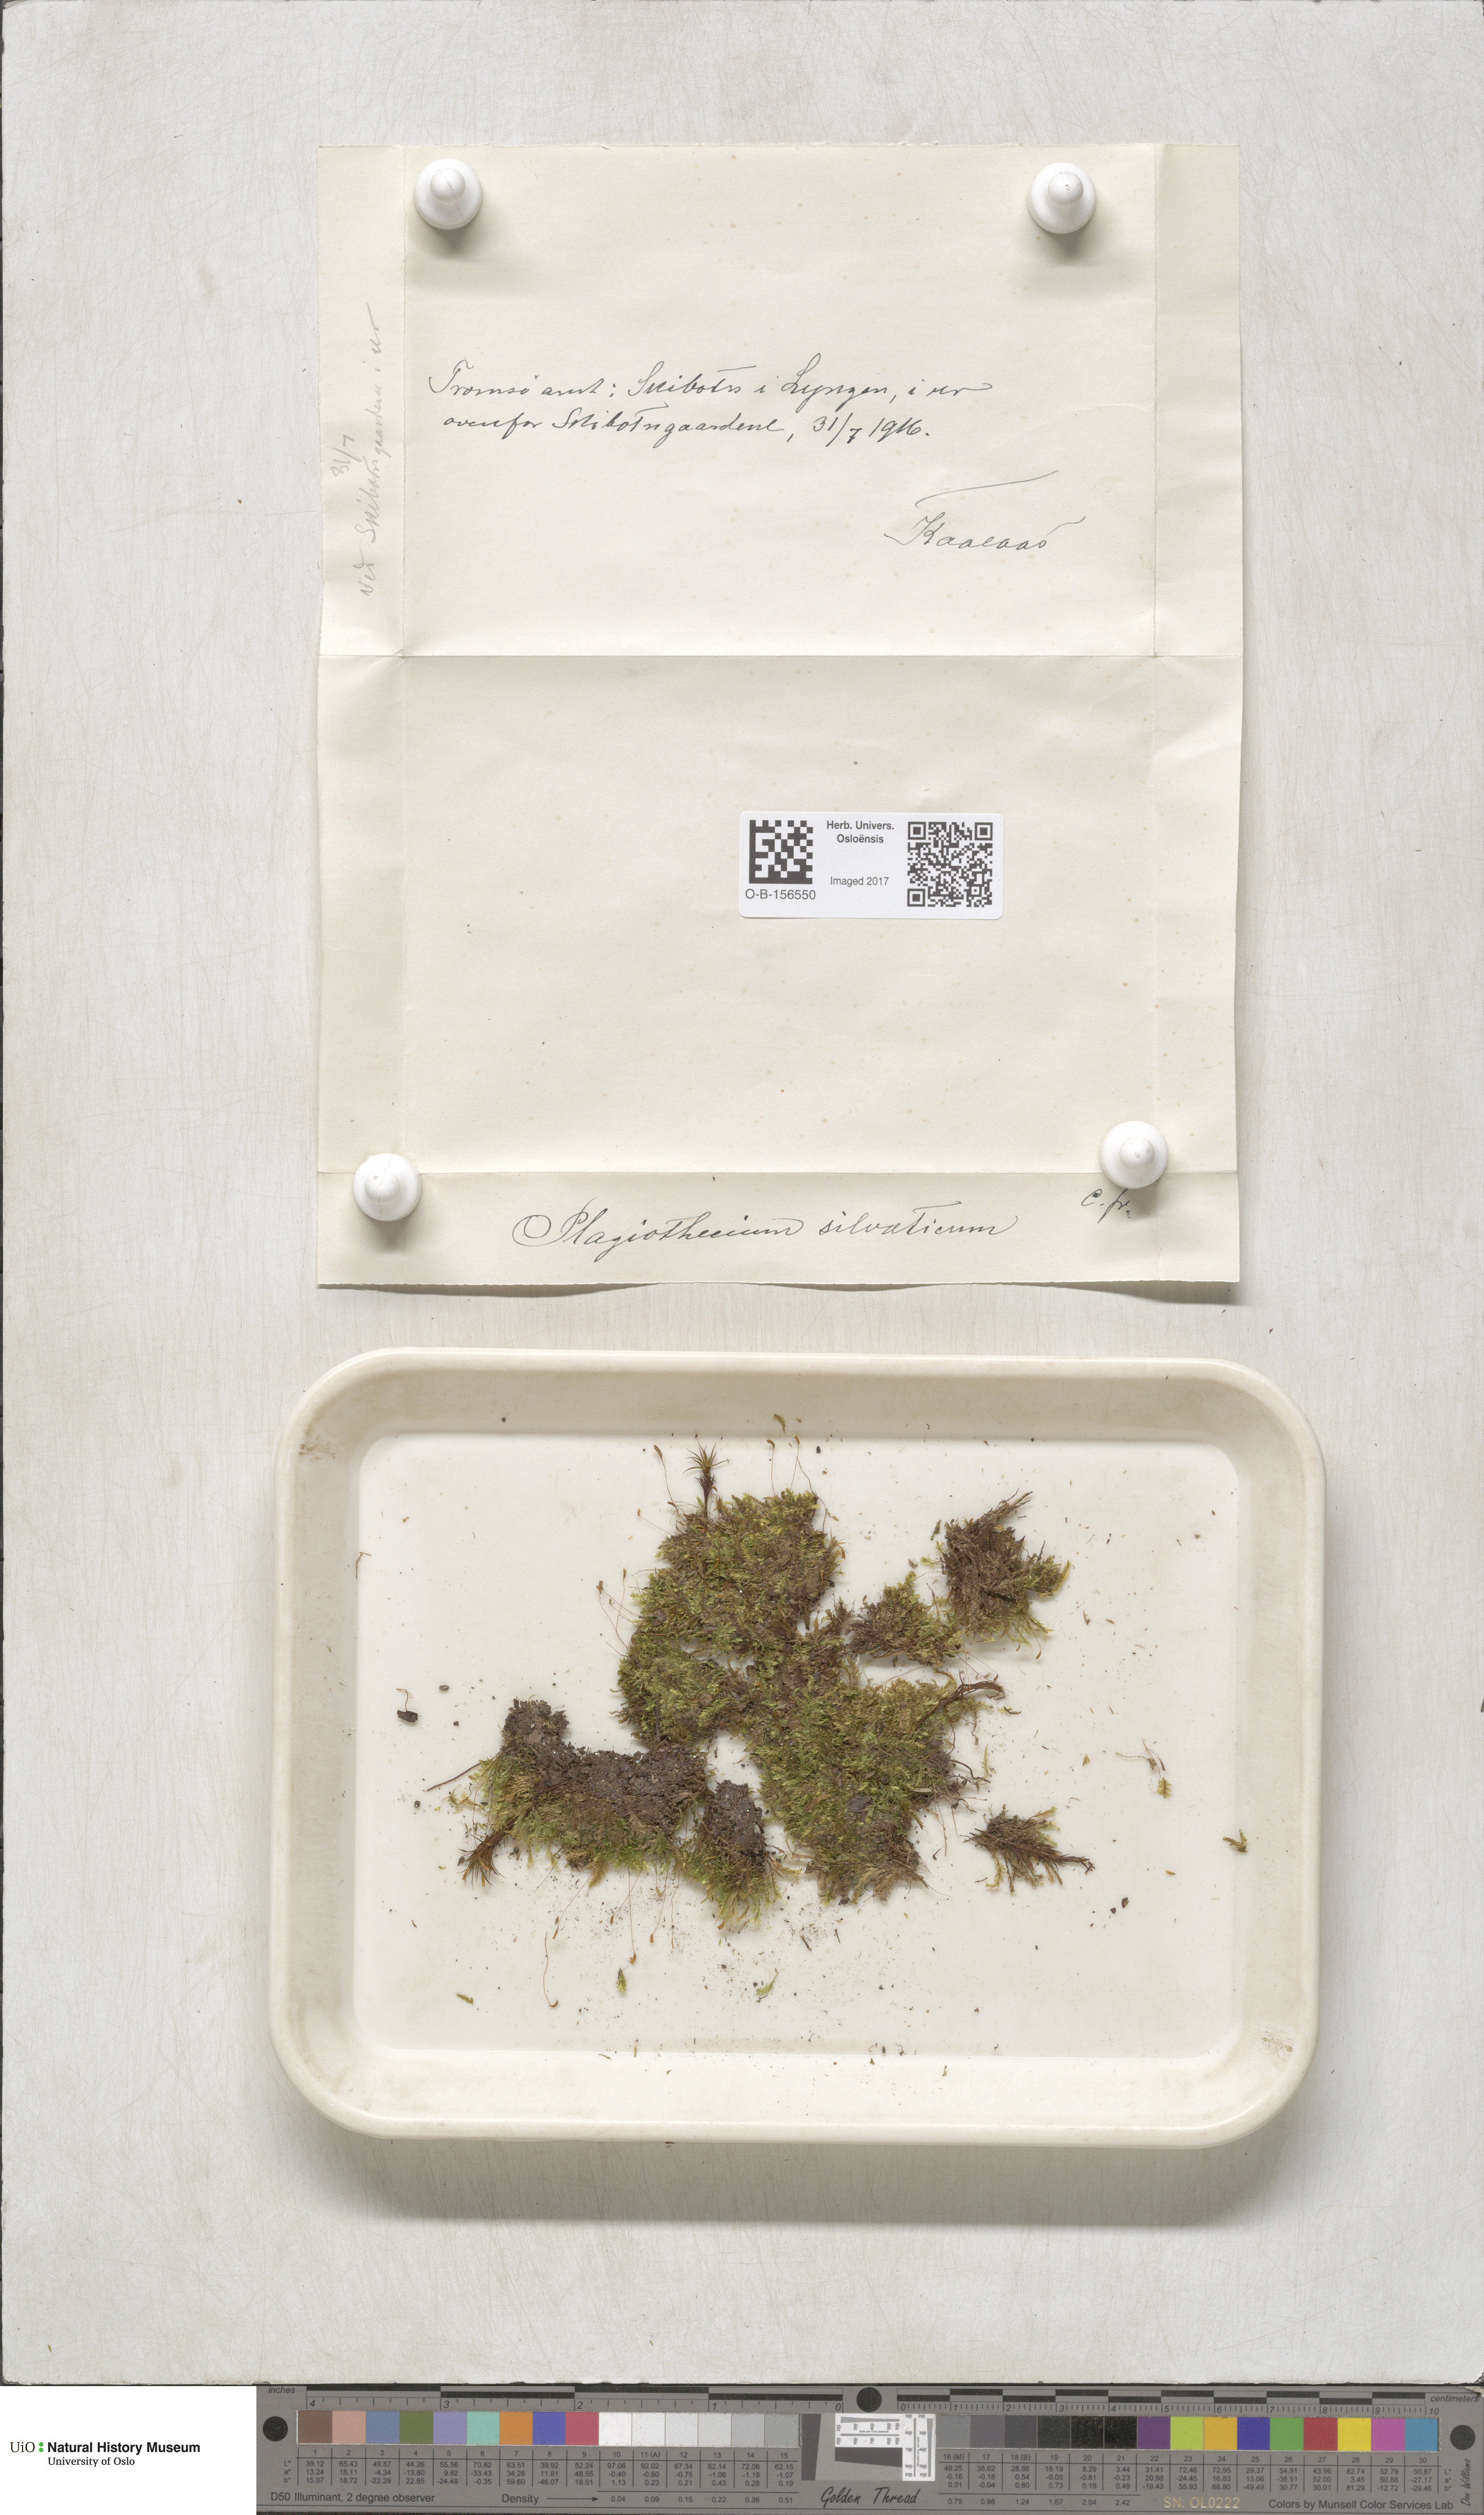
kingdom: Plantae
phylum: Bryophyta
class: Bryopsida
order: Hypnales
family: Plagiotheciaceae
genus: Plagiothecium
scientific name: Plagiothecium nemorale
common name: Woodsy silk-moss
